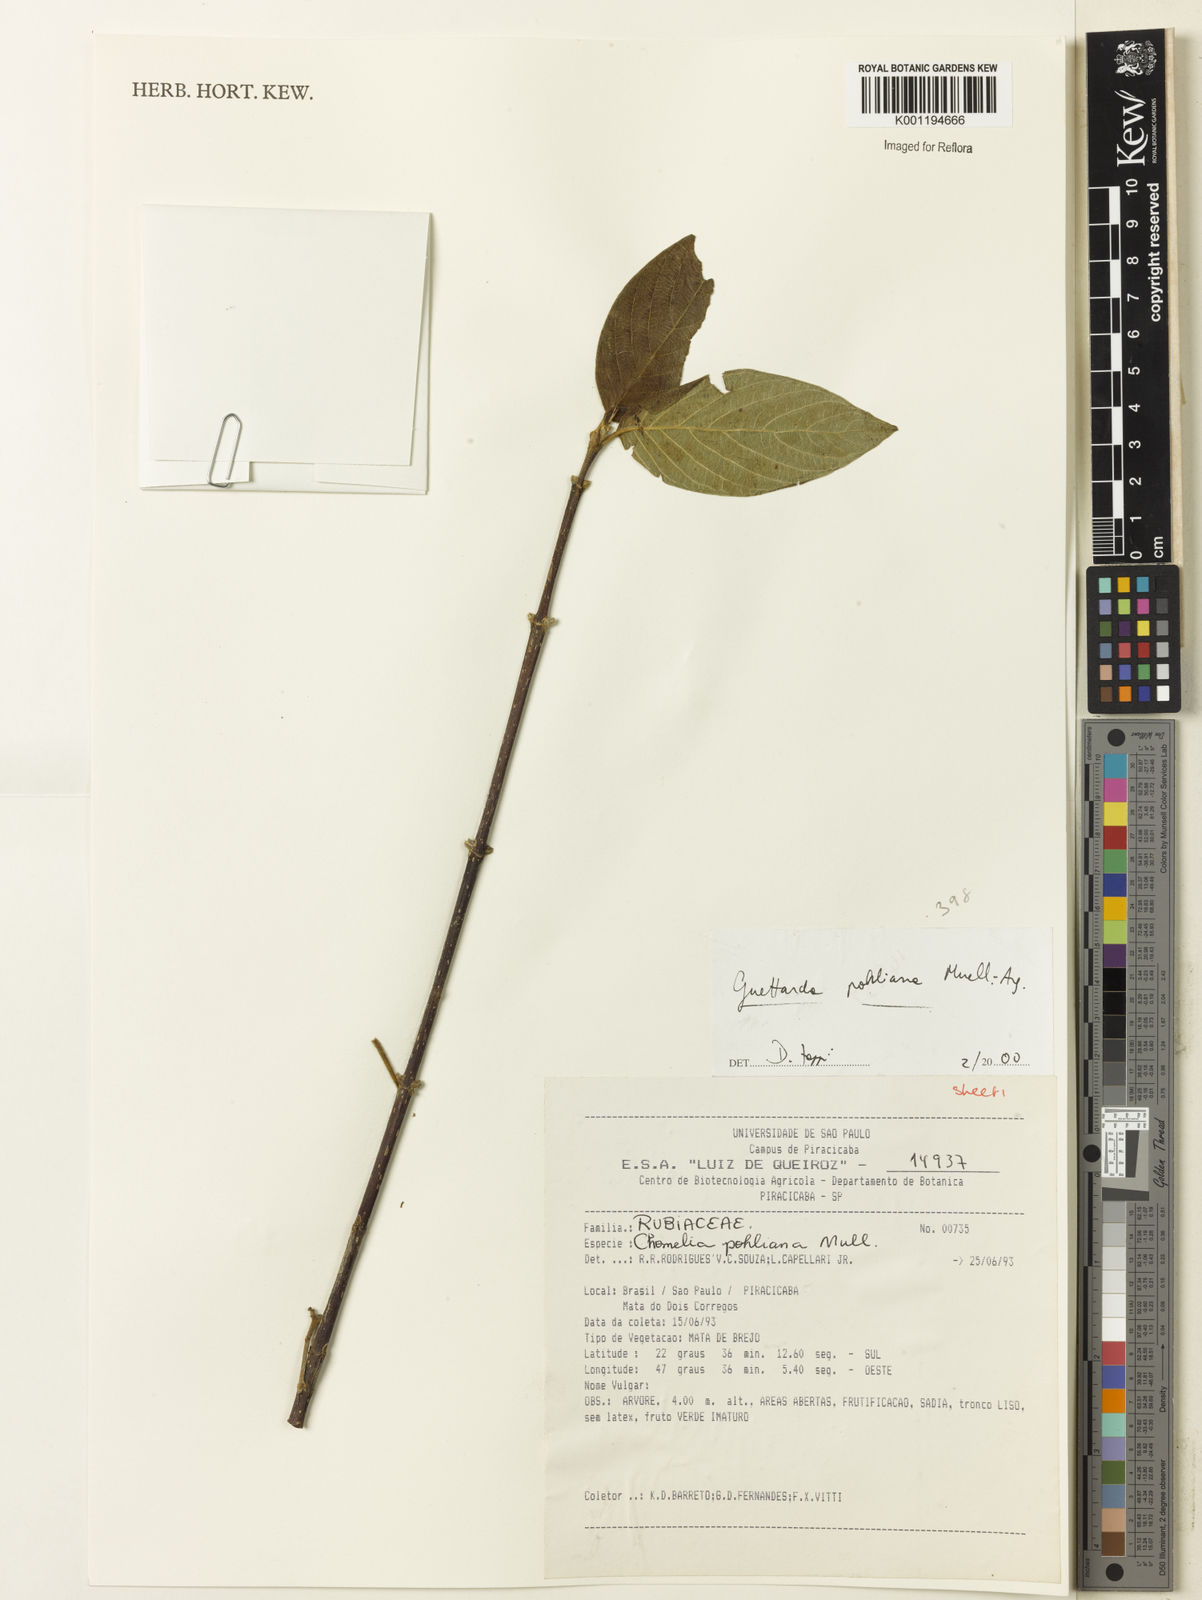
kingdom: Plantae
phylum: Tracheophyta
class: Magnoliopsida
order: Gentianales
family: Rubiaceae
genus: Guettarda
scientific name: Guettarda
